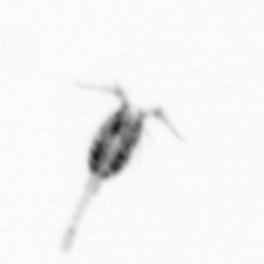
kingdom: Animalia
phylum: Arthropoda
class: Copepoda
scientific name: Copepoda
